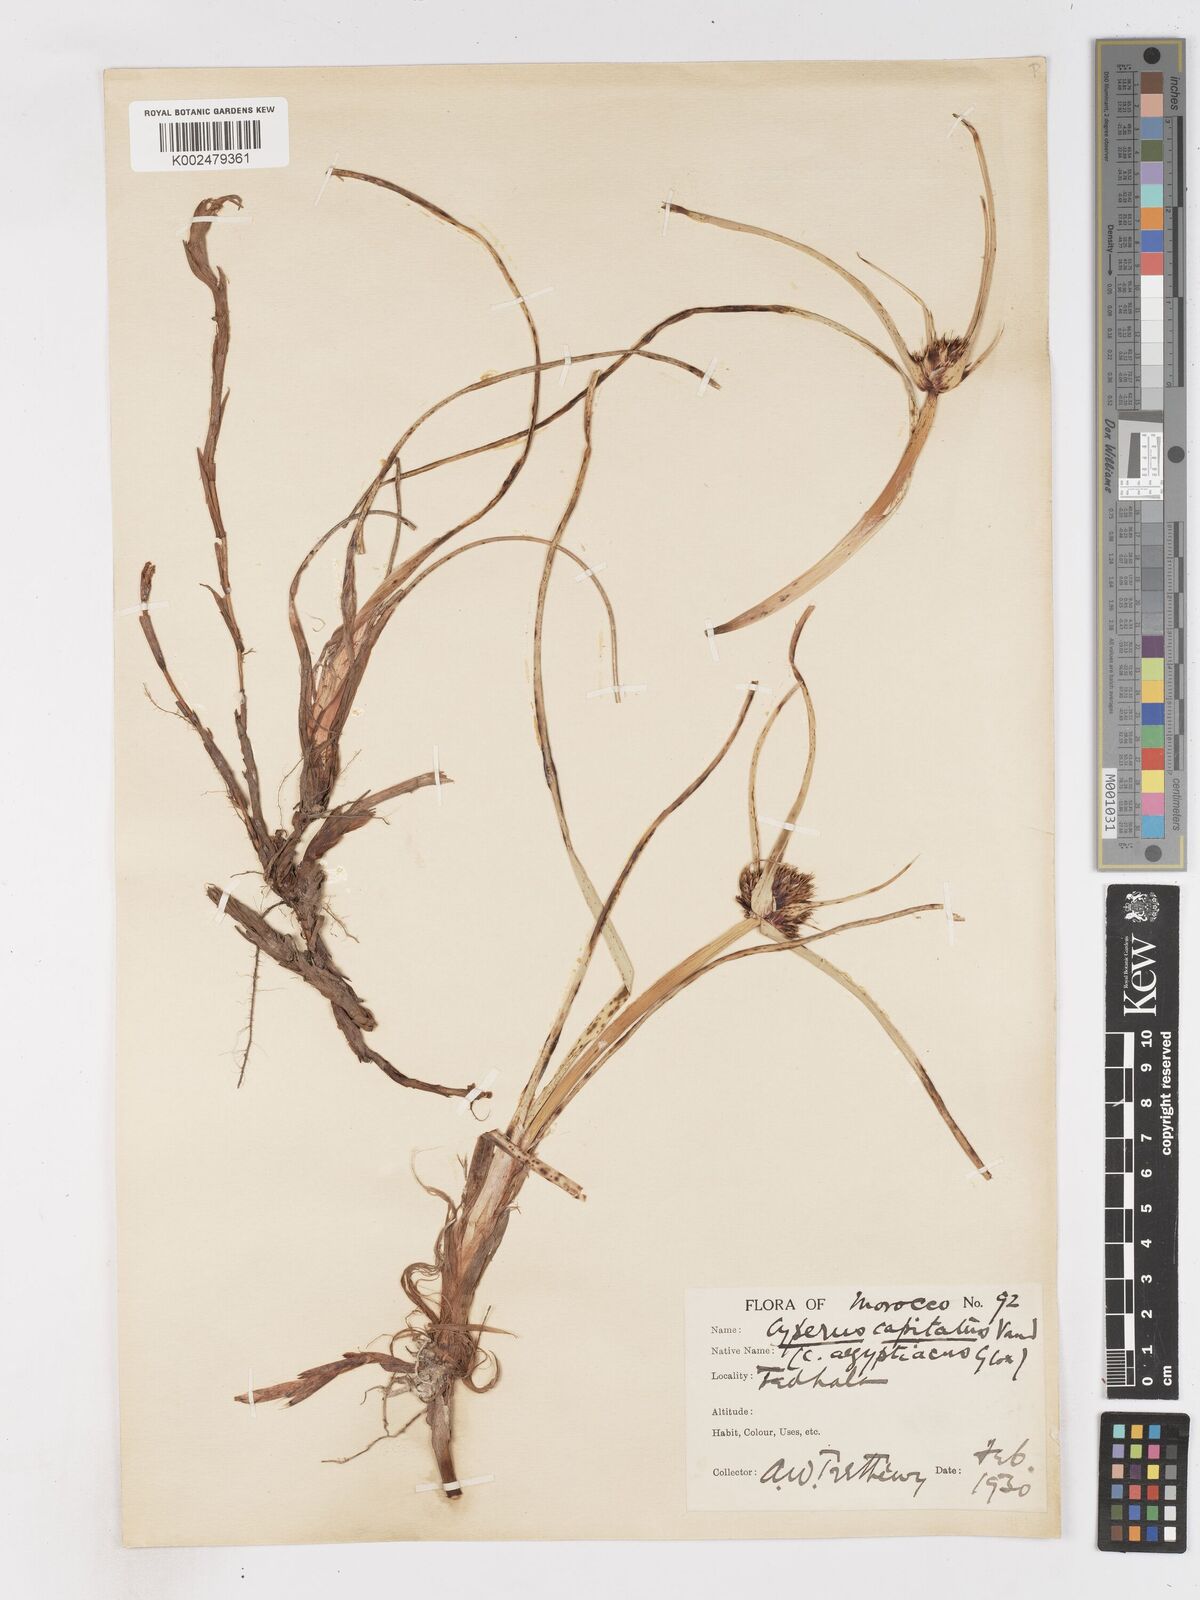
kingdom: Plantae
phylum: Tracheophyta
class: Liliopsida
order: Poales
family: Cyperaceae
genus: Cyperus
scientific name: Cyperus capitatus
